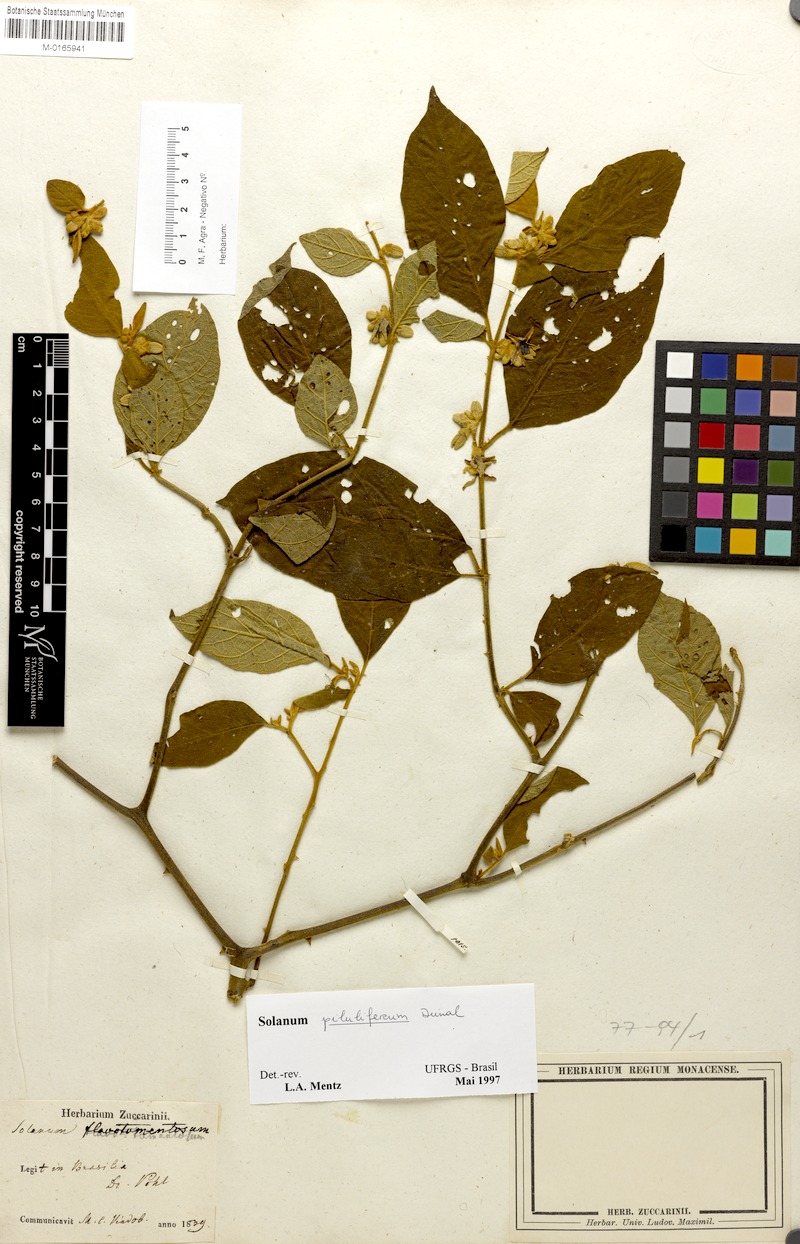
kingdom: Plantae
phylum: Tracheophyta
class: Magnoliopsida
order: Solanales
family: Solanaceae
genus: Solanum
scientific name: Solanum piluliferum
